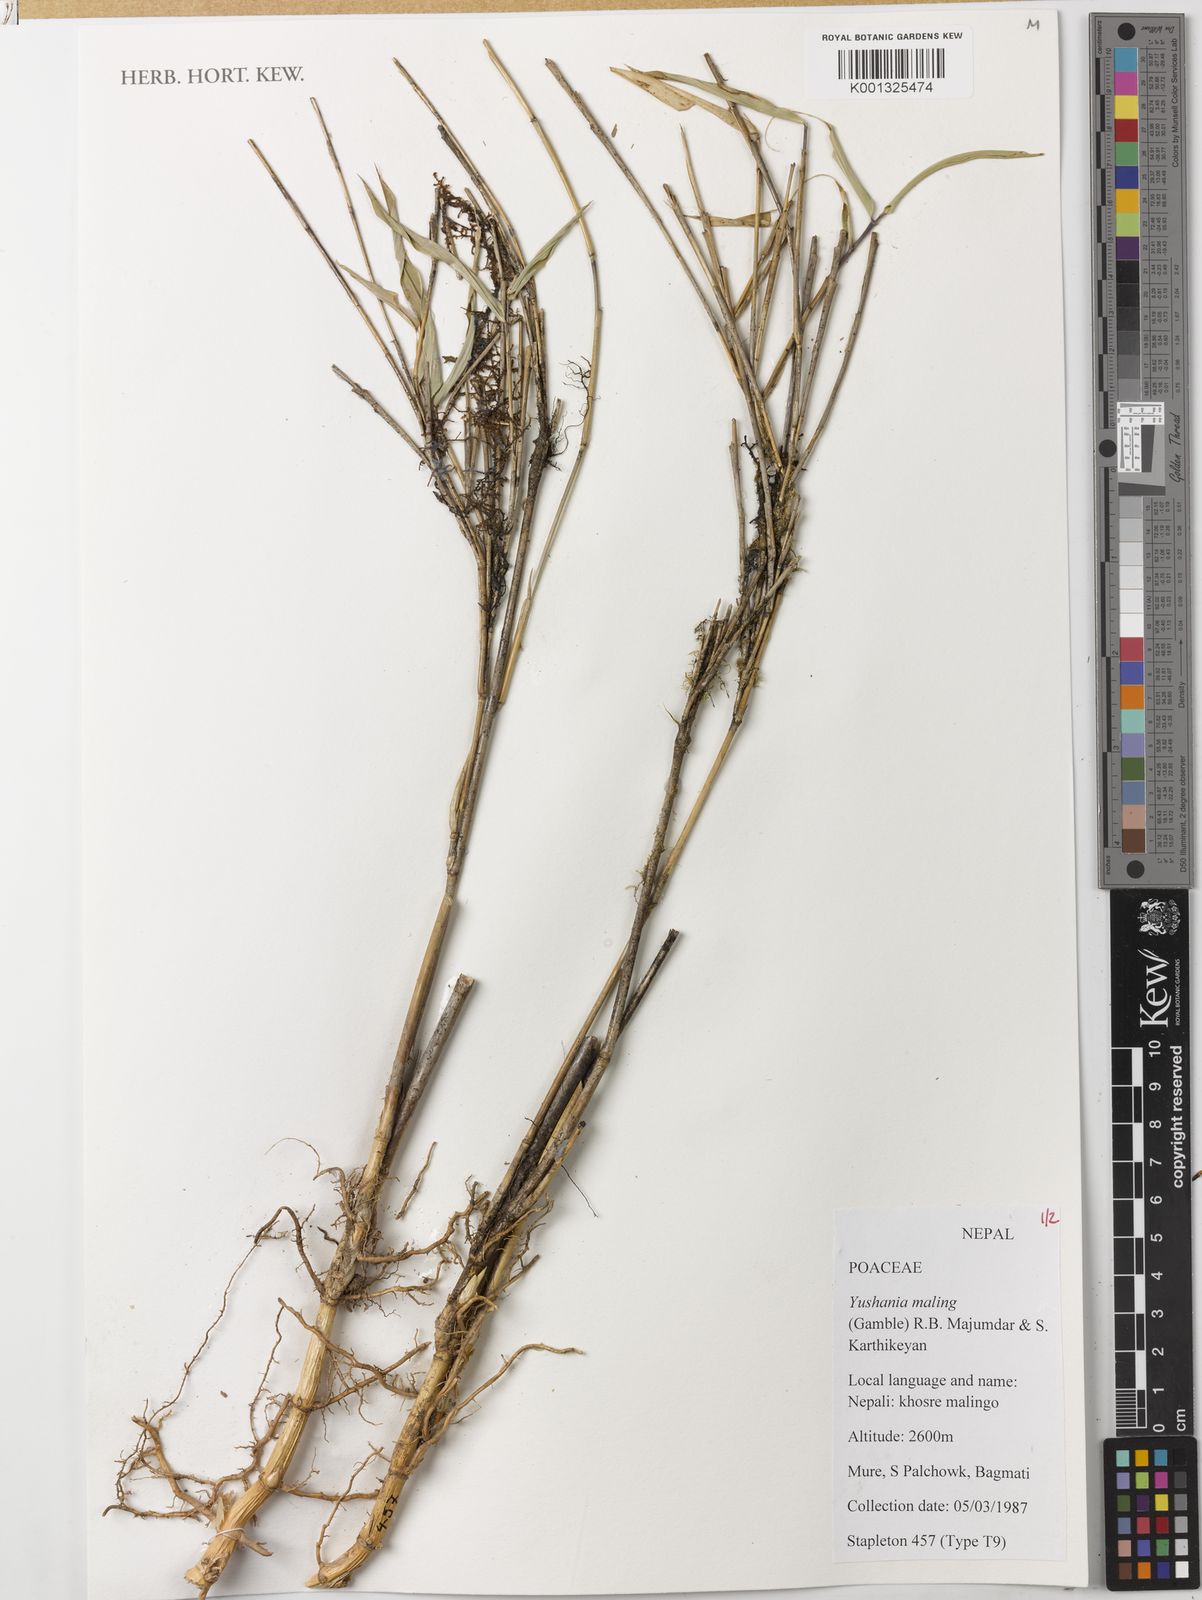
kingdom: Plantae
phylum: Tracheophyta
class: Liliopsida
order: Poales
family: Poaceae
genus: Yushania
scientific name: Yushania maling
